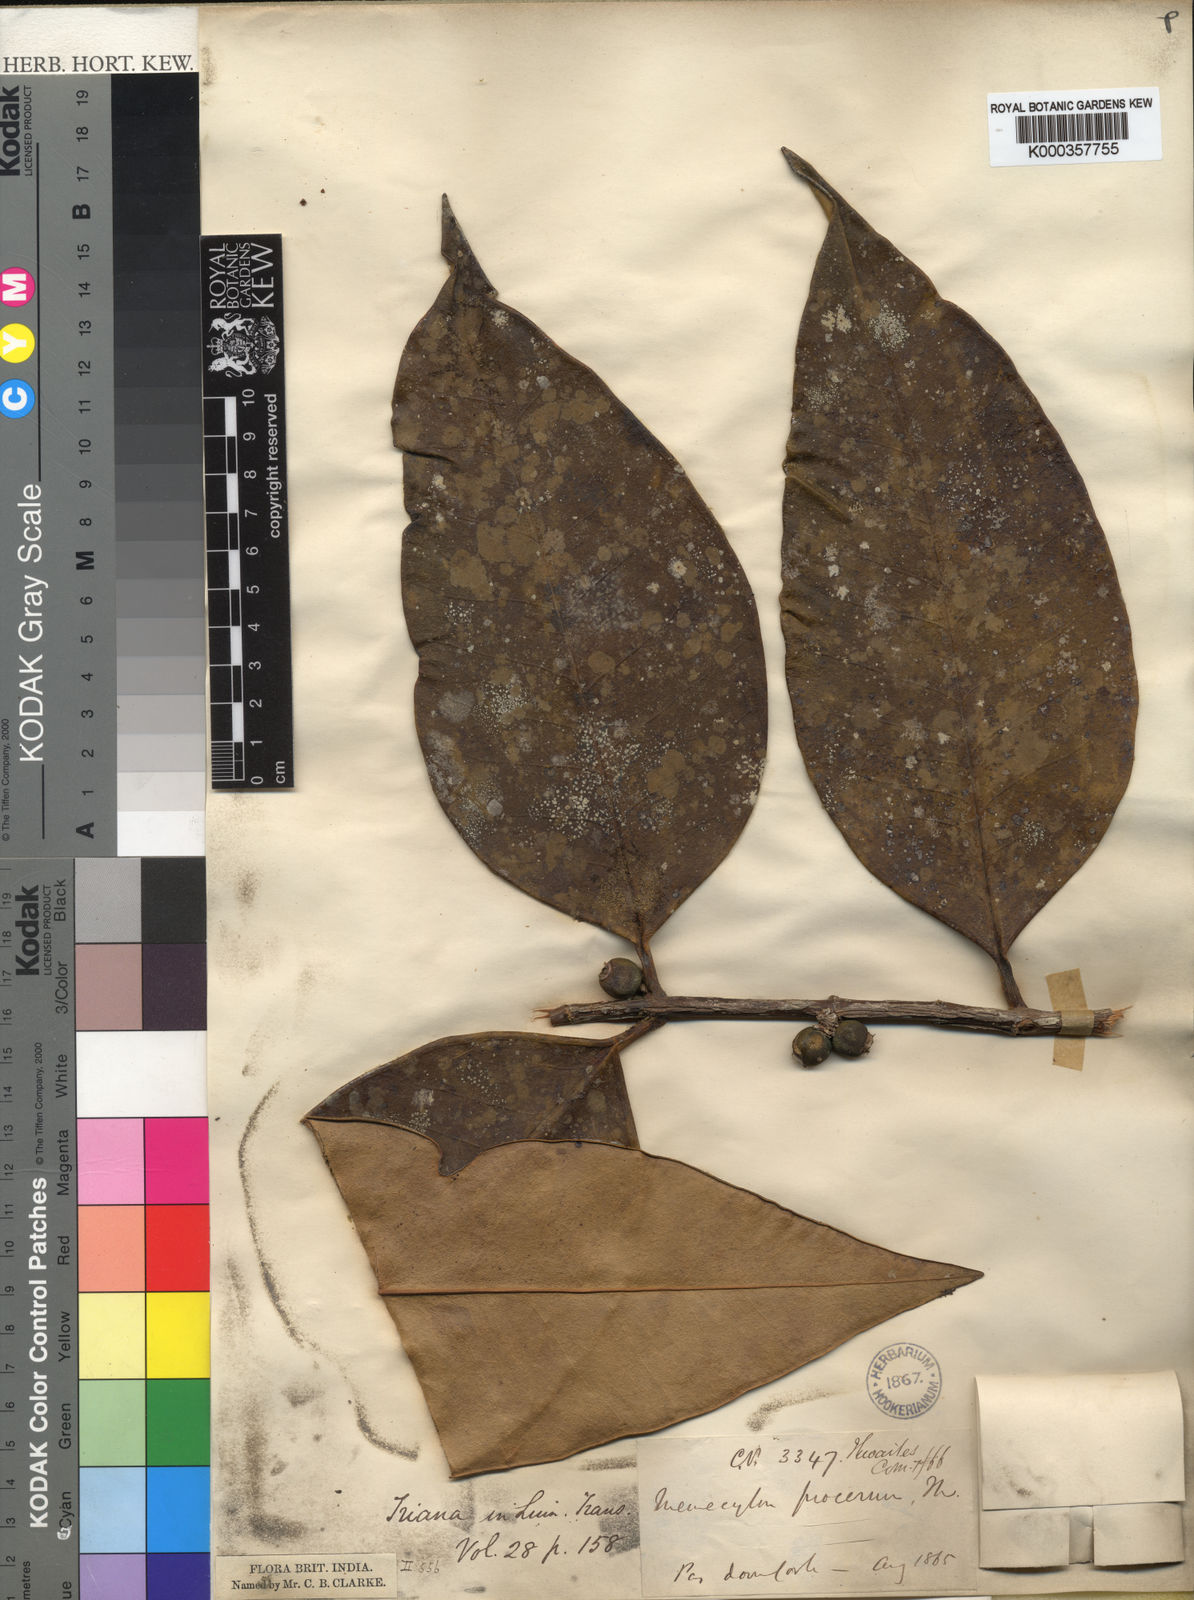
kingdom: Plantae
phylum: Tracheophyta
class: Magnoliopsida
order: Myrtales
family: Melastomataceae
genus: Memecylon
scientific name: Memecylon procerum
